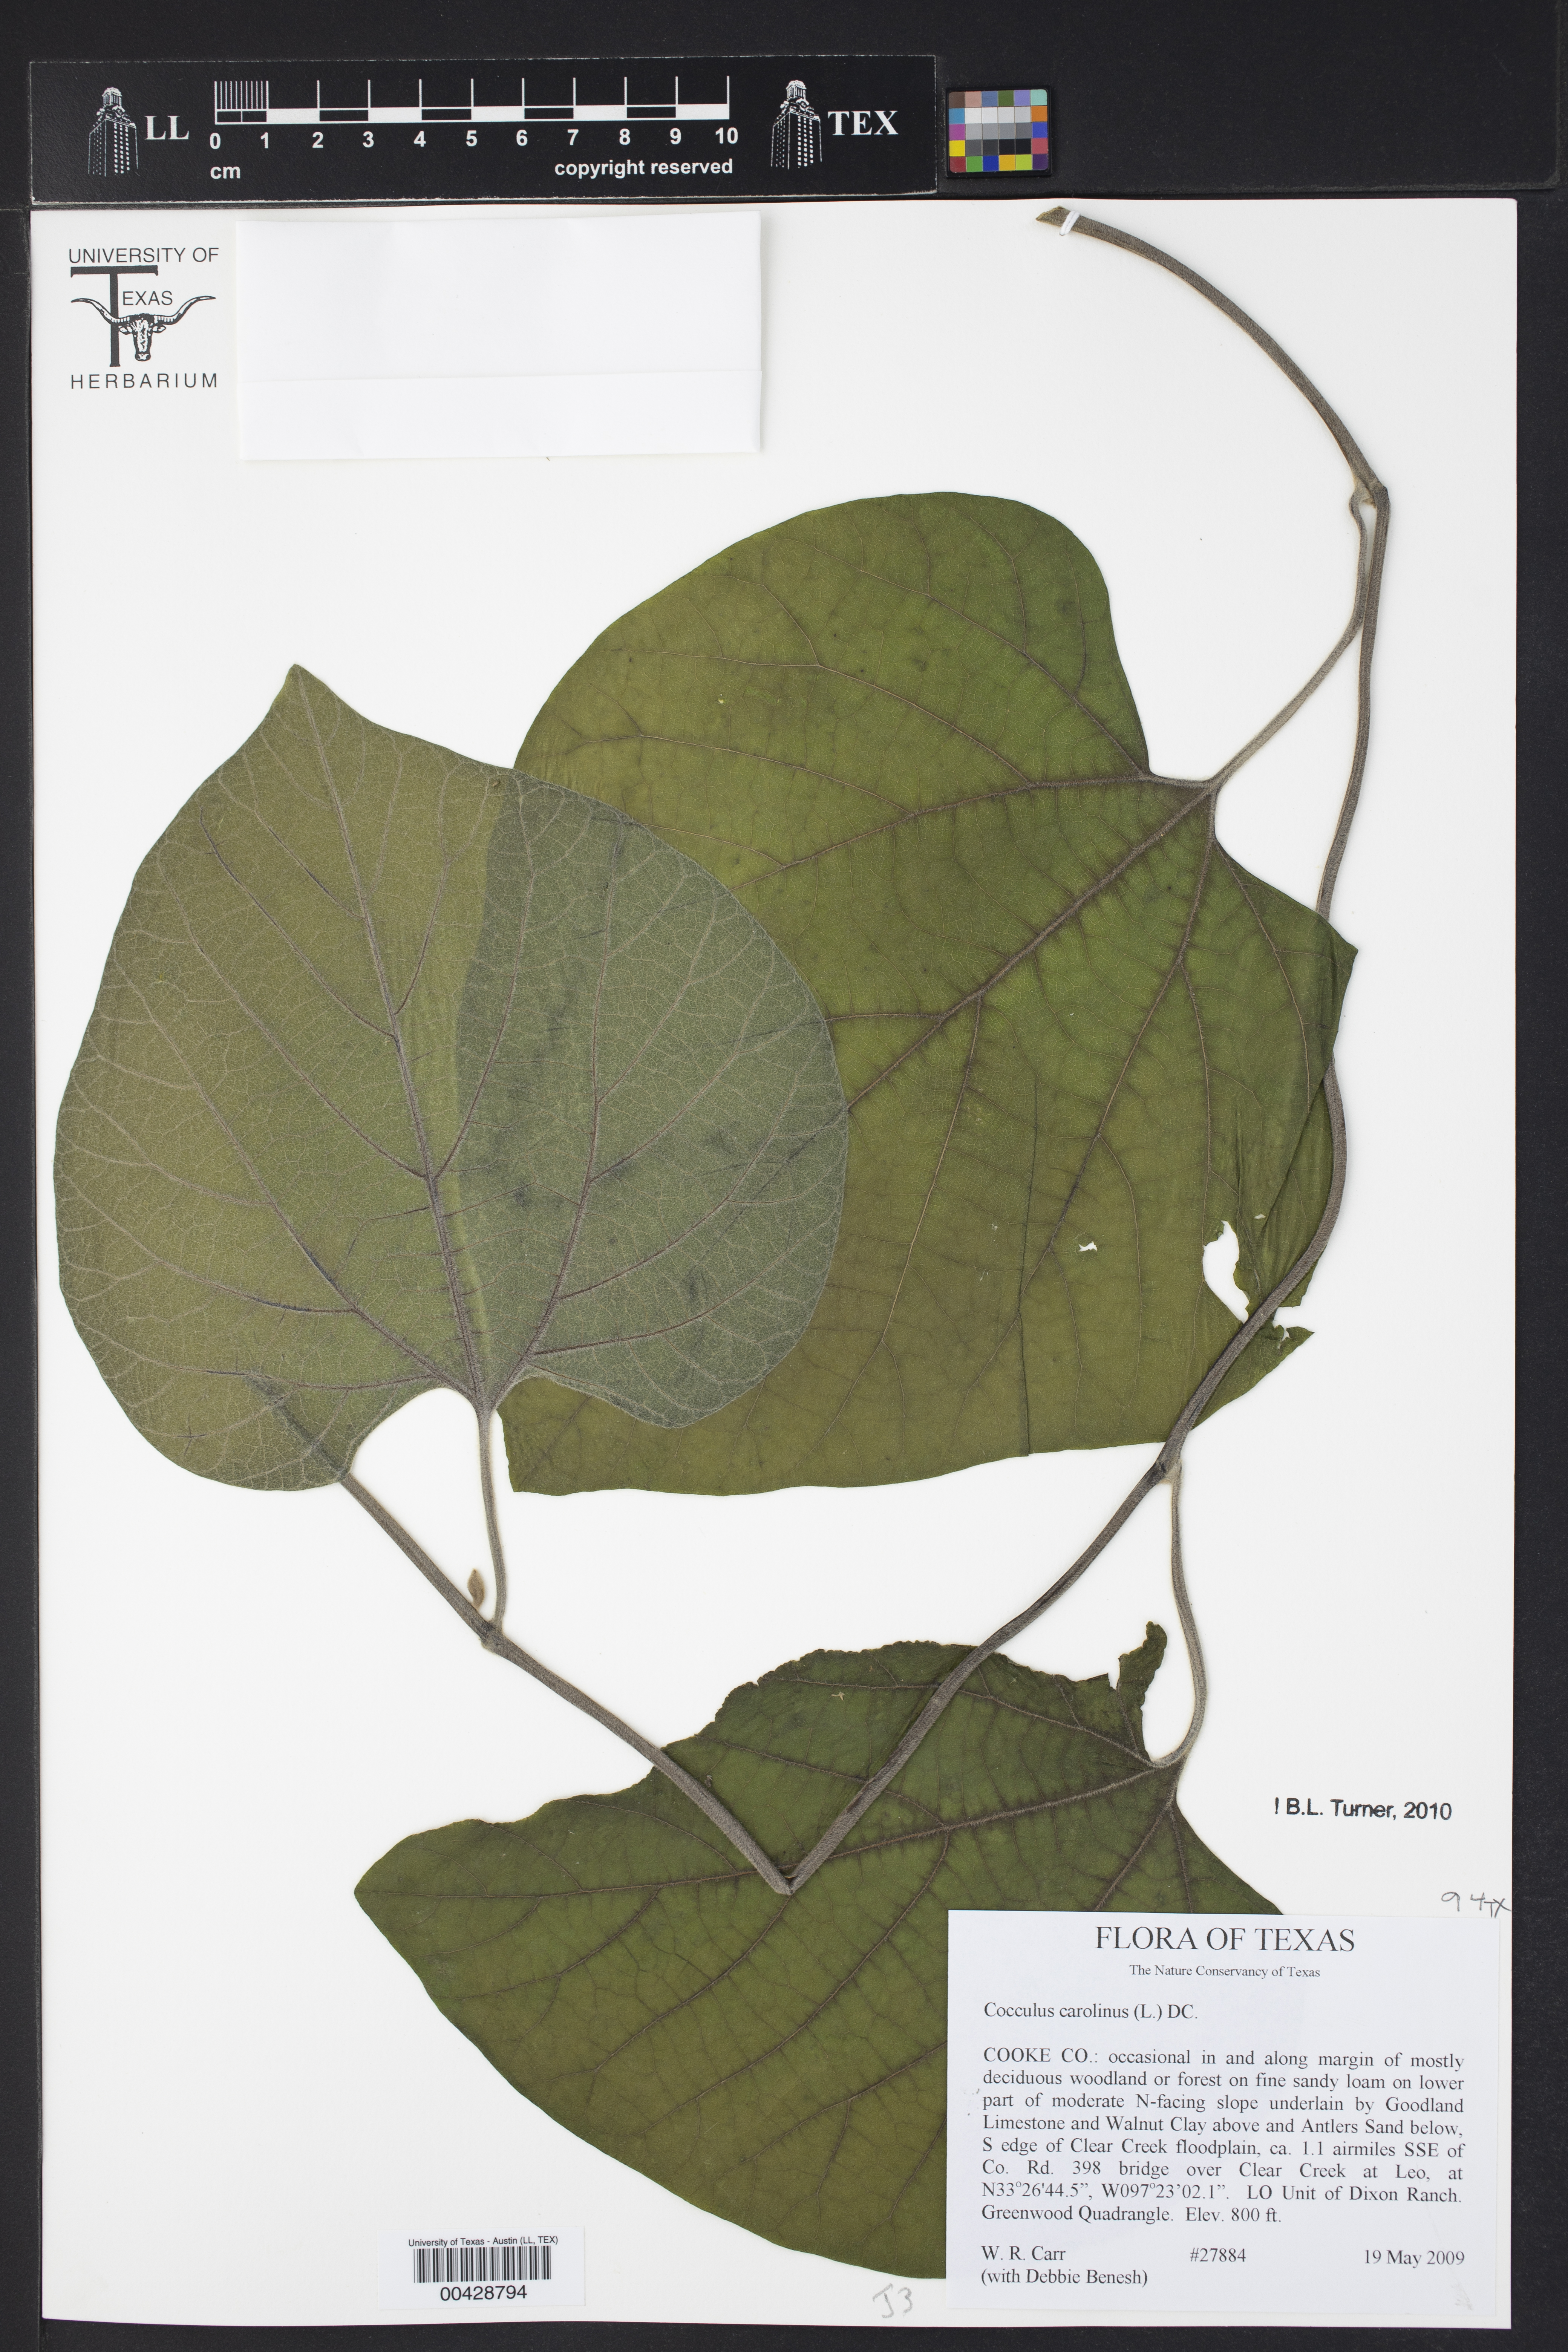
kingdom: Plantae
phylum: Tracheophyta
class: Magnoliopsida
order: Ranunculales
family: Menispermaceae
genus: Cocculus
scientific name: Cocculus carolinus
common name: Carolina moonseed
